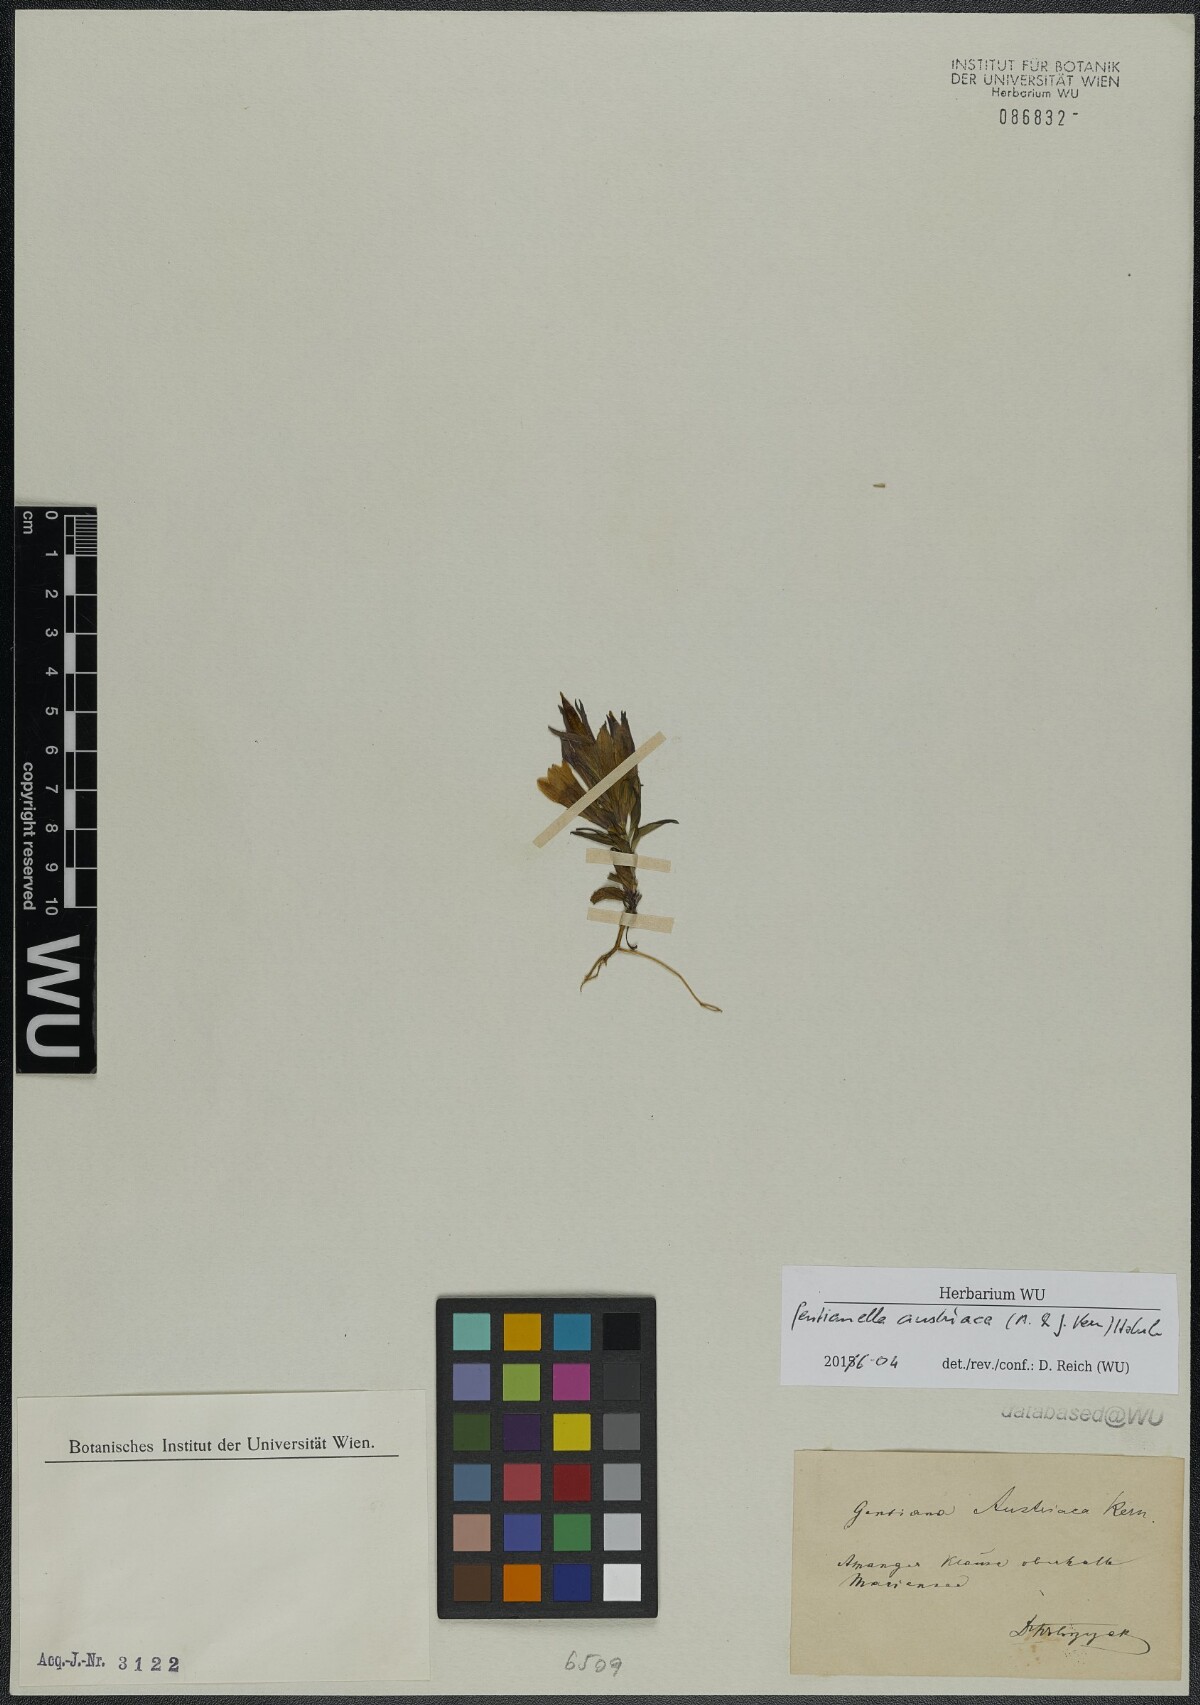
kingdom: Plantae
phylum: Tracheophyta
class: Magnoliopsida
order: Gentianales
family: Gentianaceae
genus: Gentianella
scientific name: Gentianella austriaca
